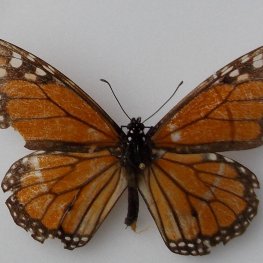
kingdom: Animalia
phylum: Arthropoda
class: Insecta
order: Lepidoptera
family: Nymphalidae
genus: Danaus
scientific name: Danaus plexippus
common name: Monarch
